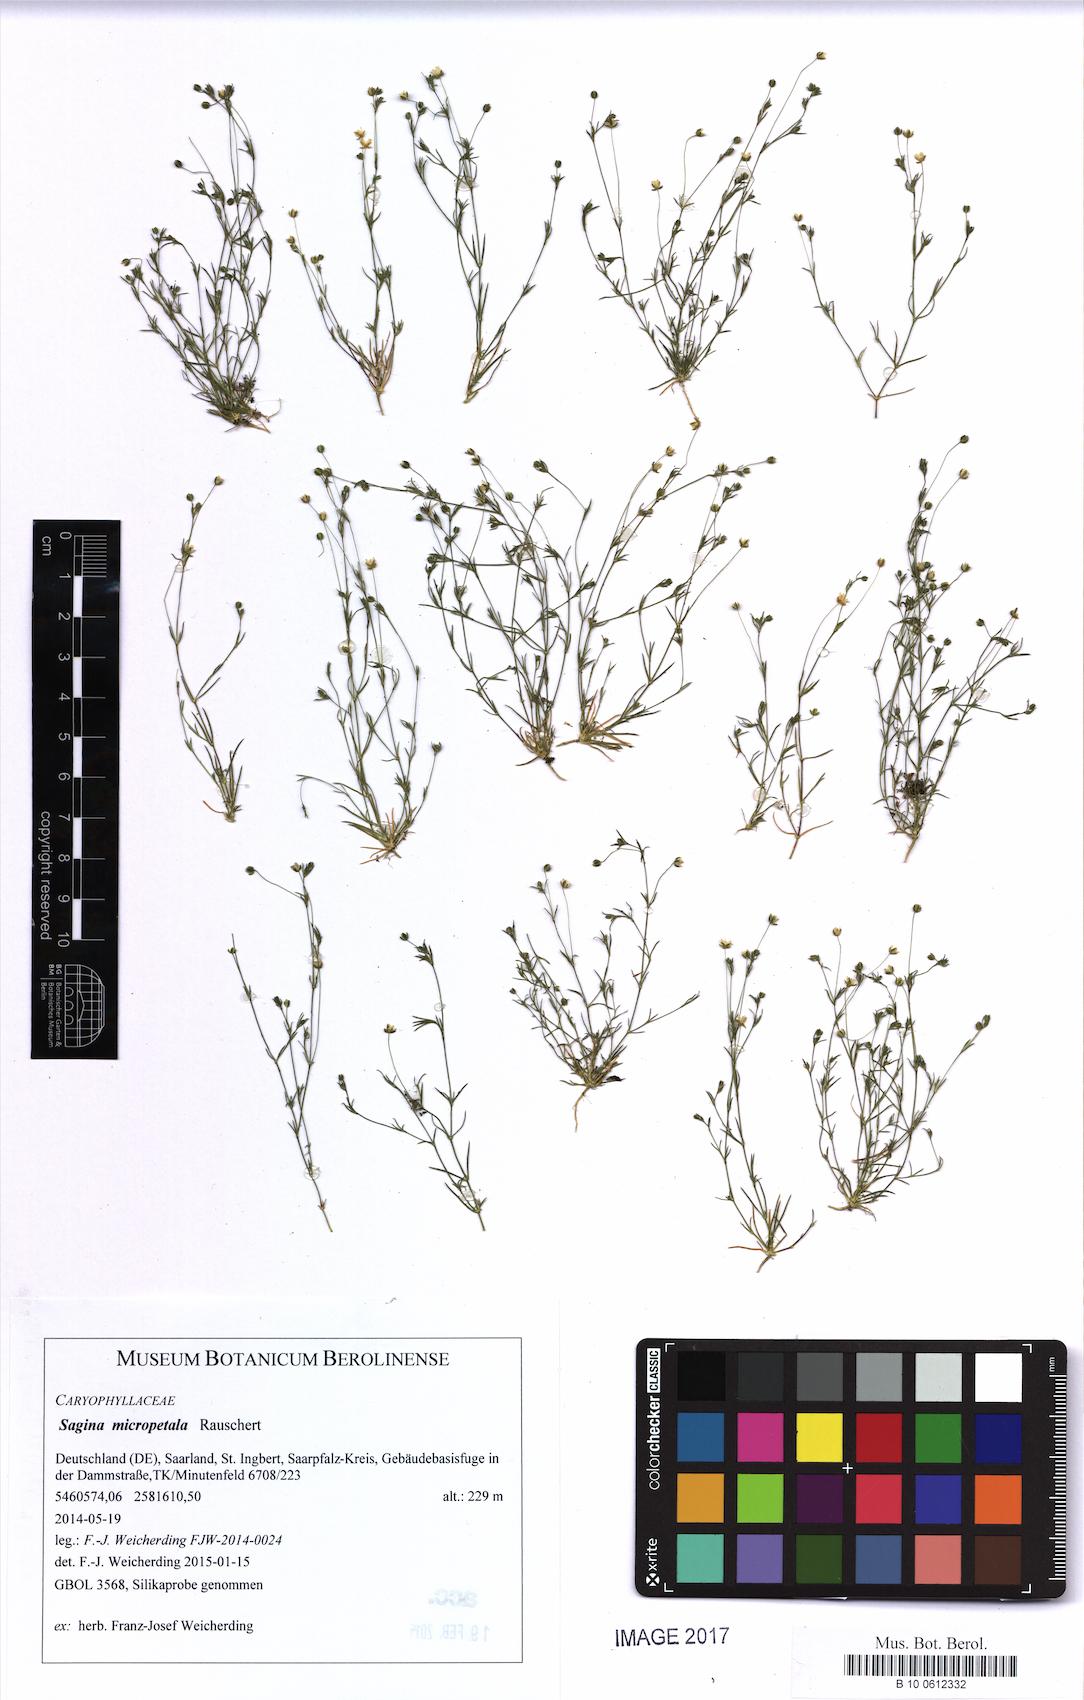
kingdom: Plantae
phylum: Tracheophyta
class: Magnoliopsida
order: Caryophyllales
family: Caryophyllaceae
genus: Sagina
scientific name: Sagina micropetala
